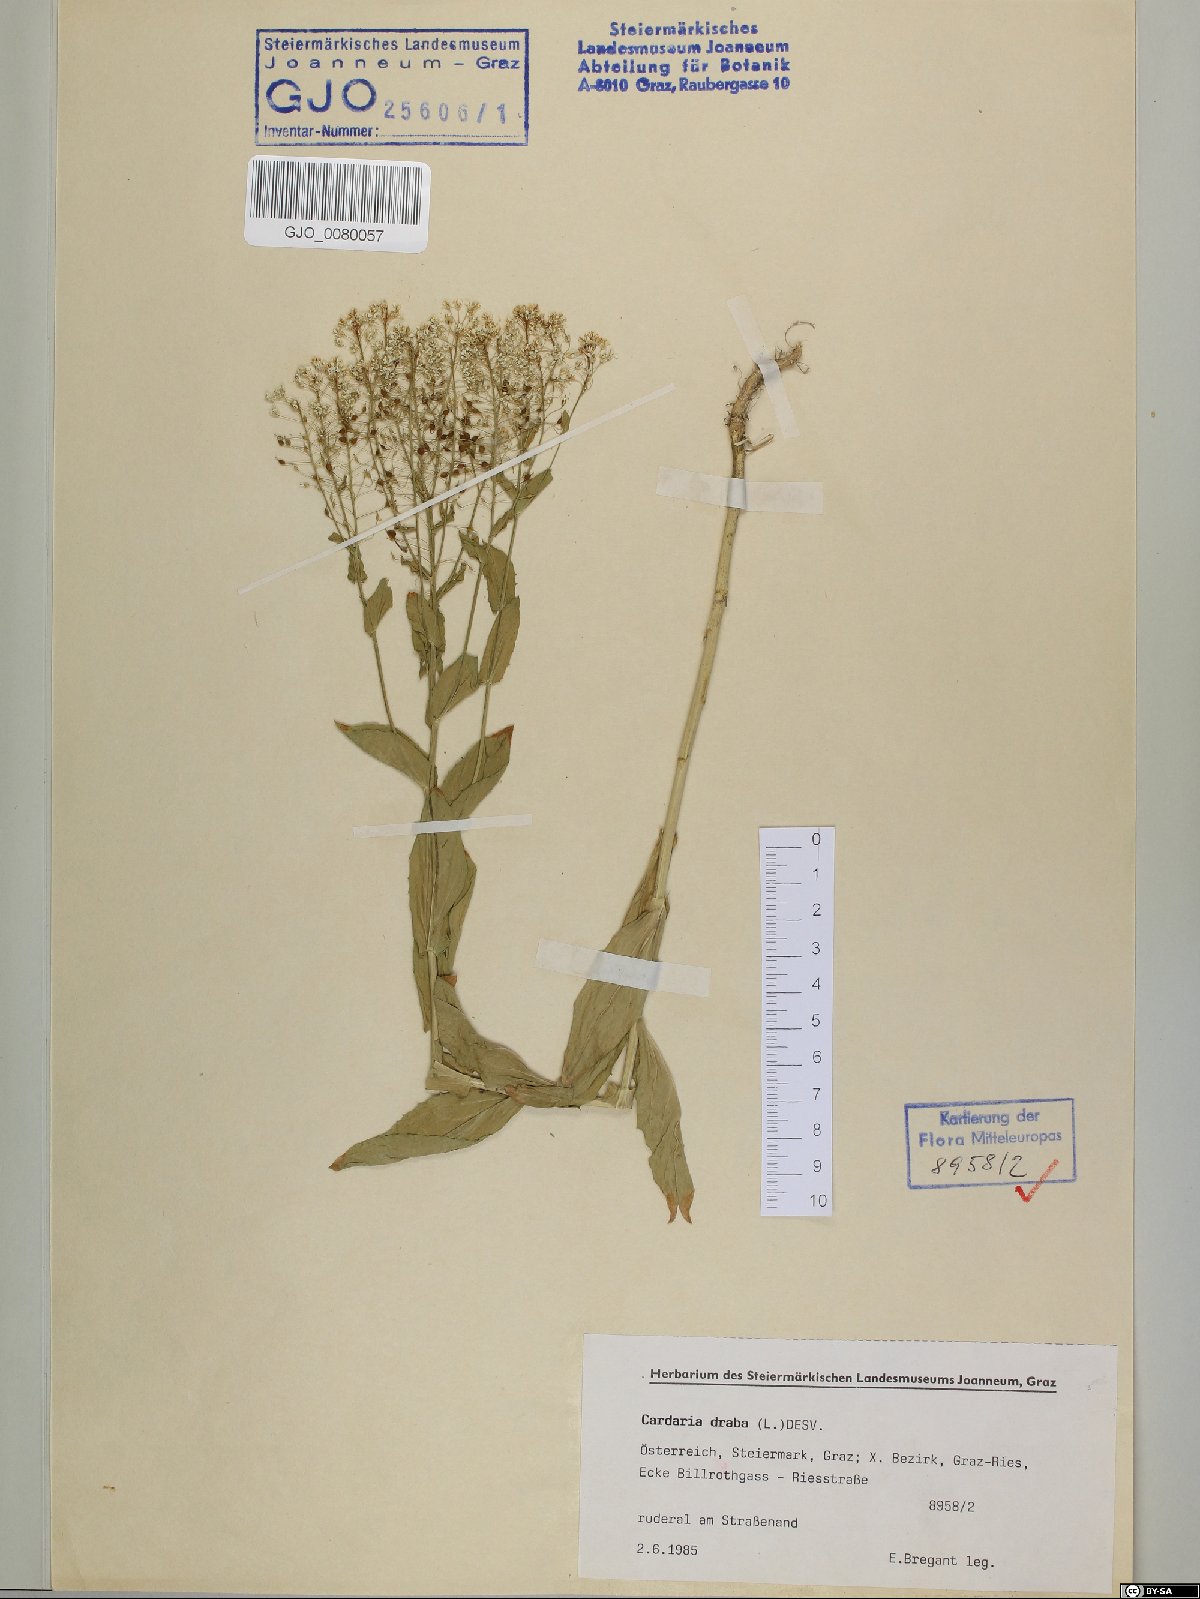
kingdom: Plantae
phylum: Tracheophyta
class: Magnoliopsida
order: Brassicales
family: Brassicaceae
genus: Lepidium
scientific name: Lepidium draba
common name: Hoary cress
